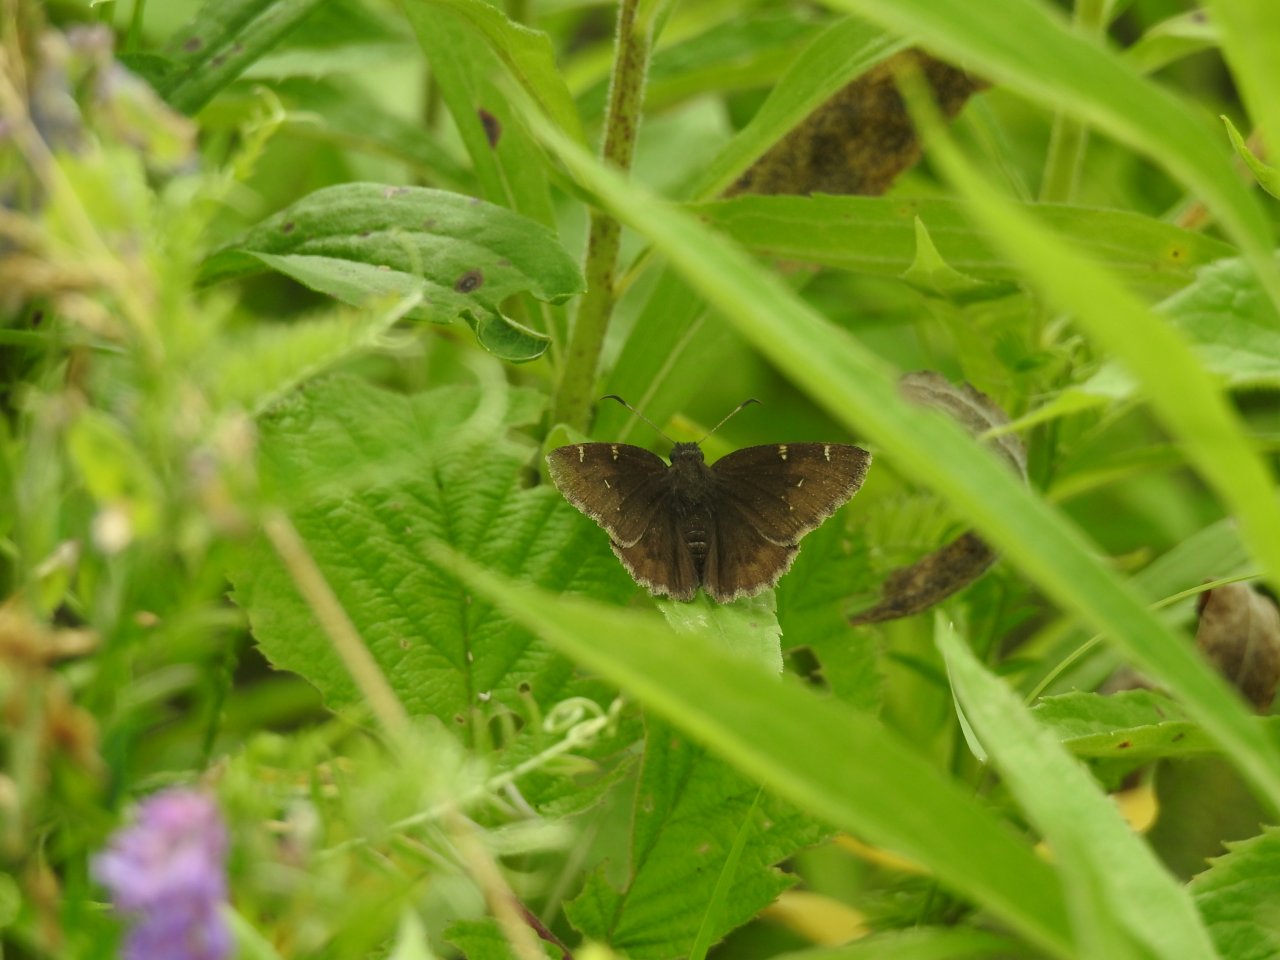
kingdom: Animalia
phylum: Arthropoda
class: Insecta
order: Lepidoptera
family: Hesperiidae
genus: Autochton
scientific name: Autochton
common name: Northern Cloudywing
